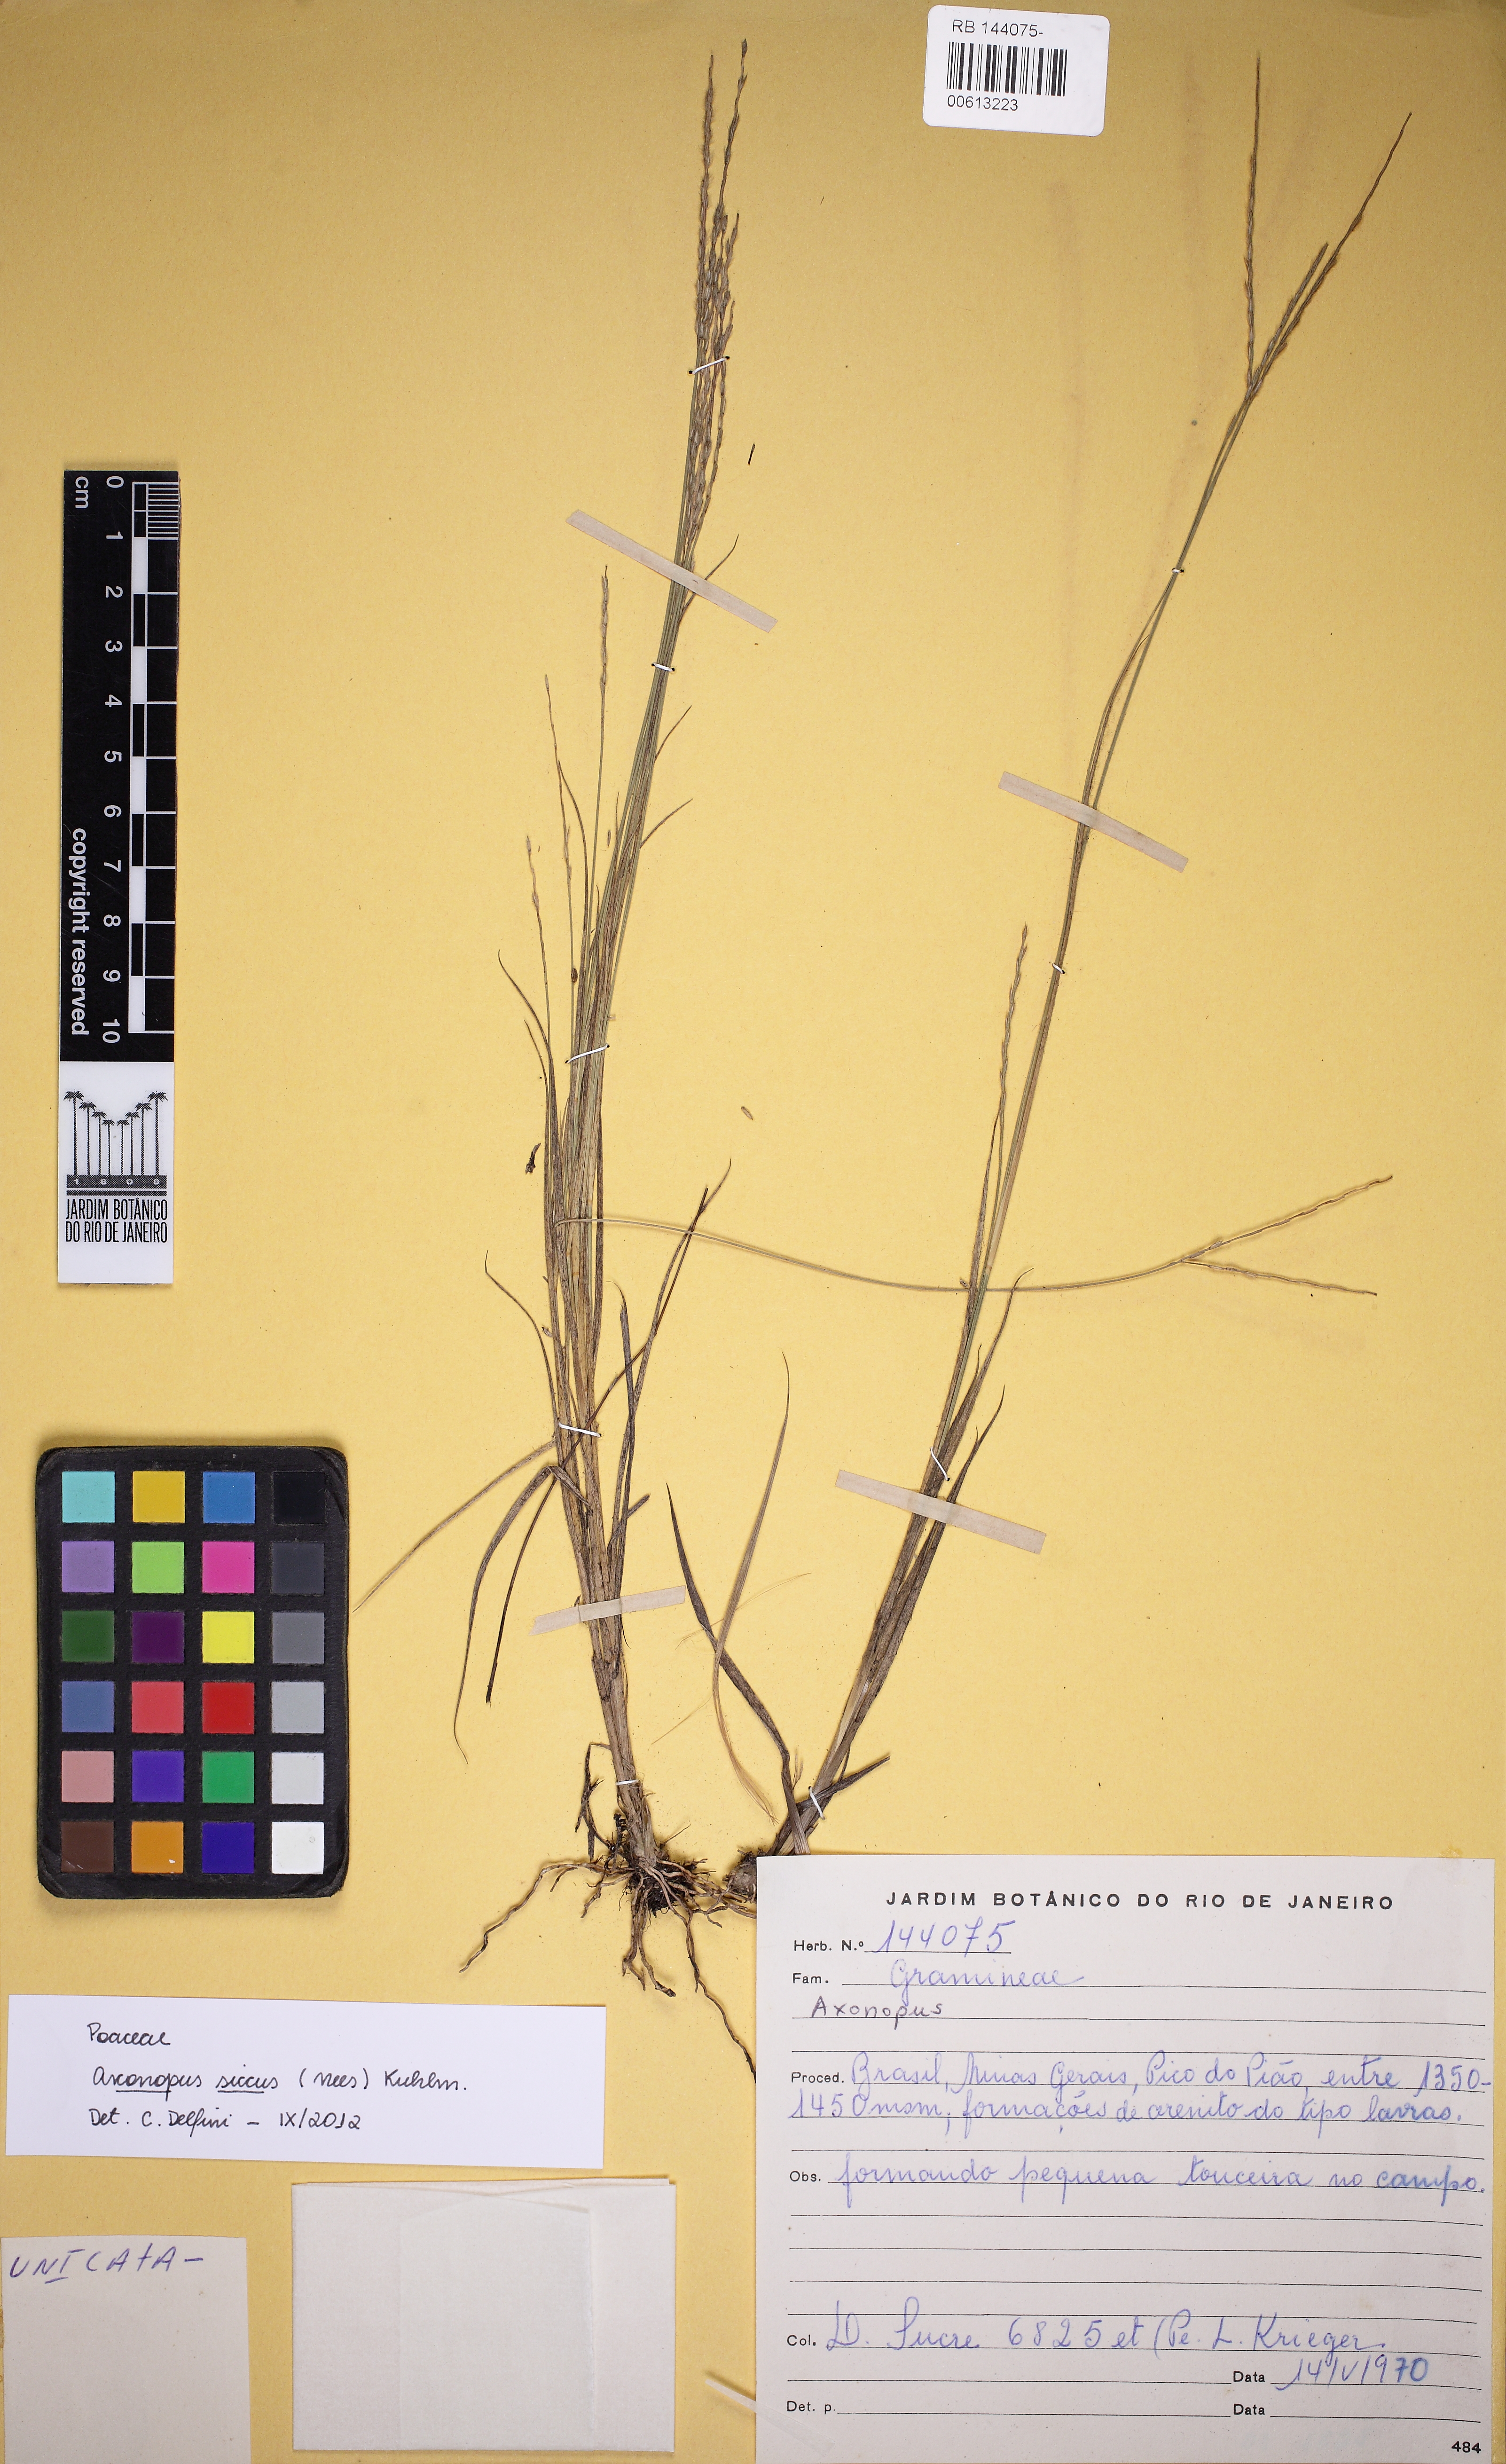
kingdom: Plantae
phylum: Tracheophyta
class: Liliopsida
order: Poales
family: Poaceae
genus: Axonopus
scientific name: Axonopus siccus
